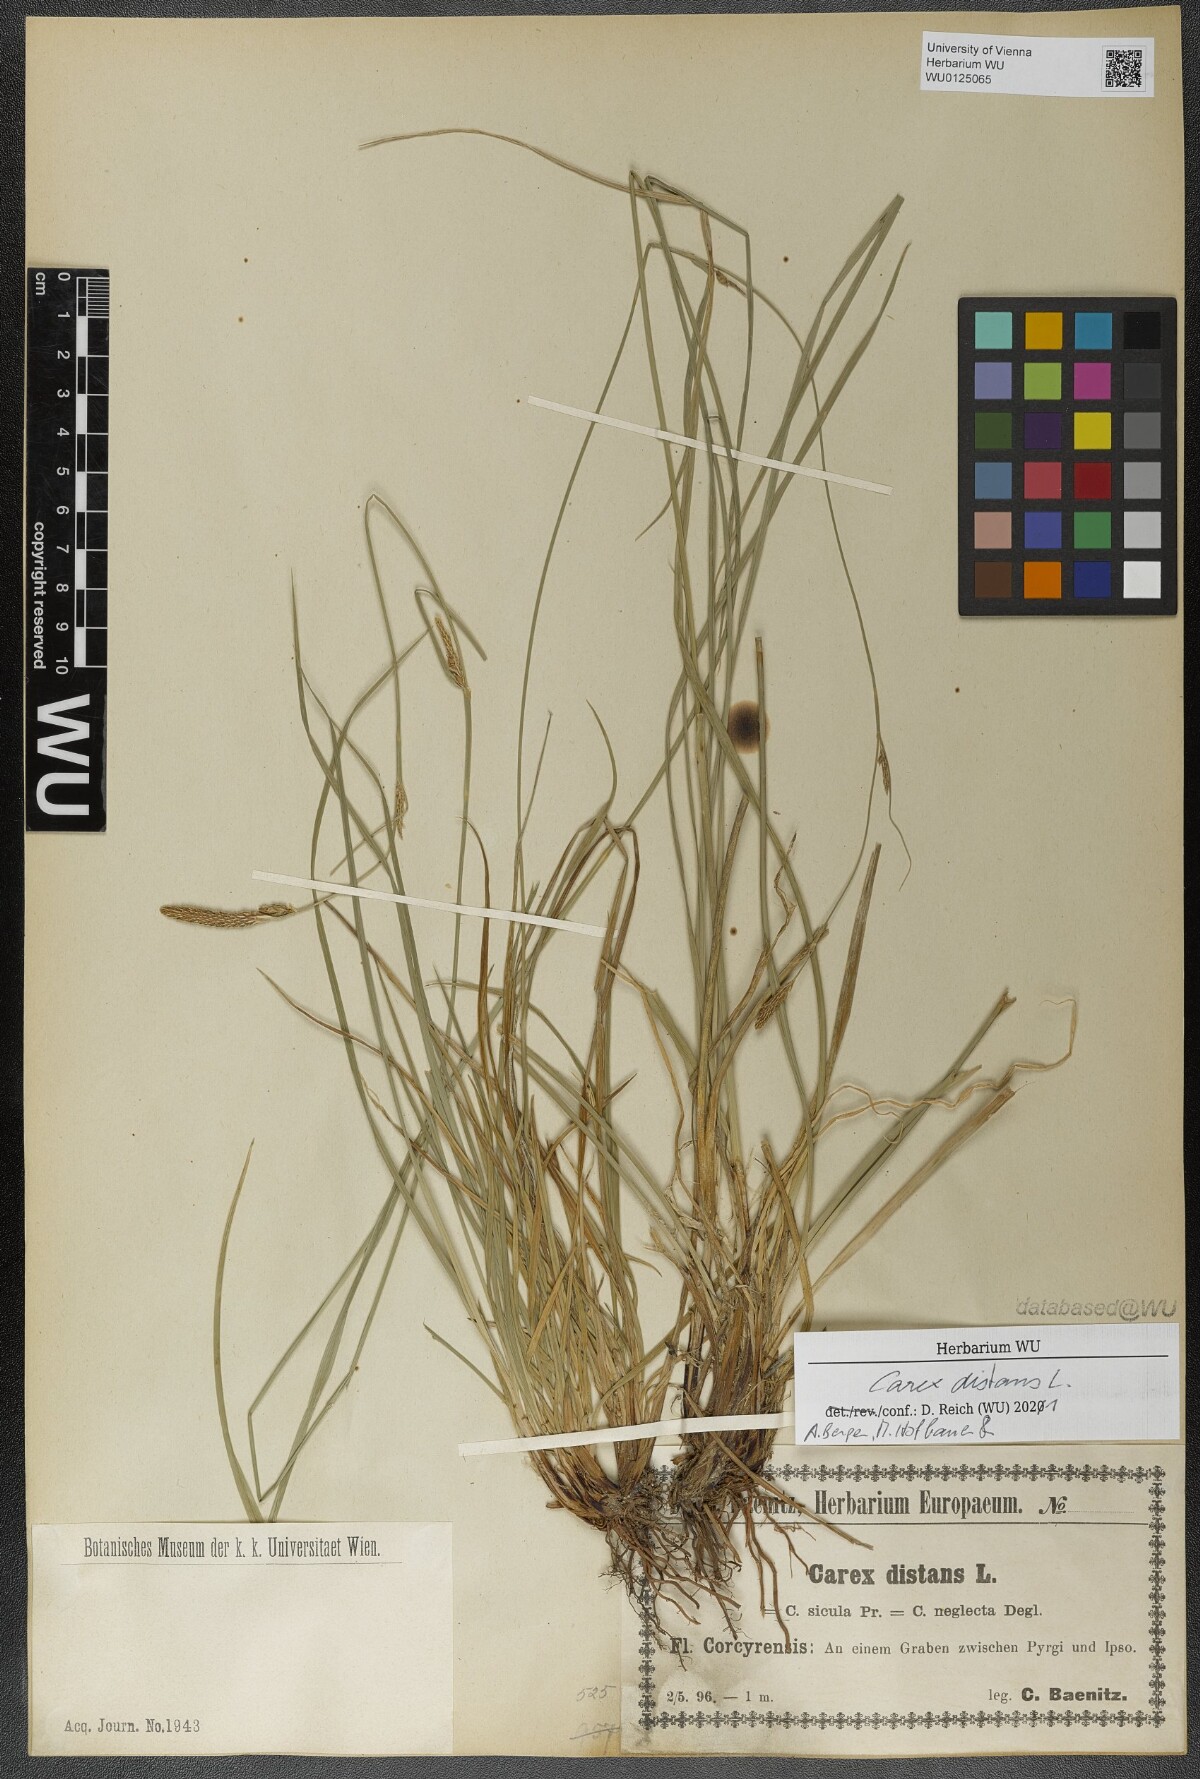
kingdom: Plantae
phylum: Tracheophyta
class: Liliopsida
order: Poales
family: Cyperaceae
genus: Carex
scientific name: Carex distans
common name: Distant sedge
